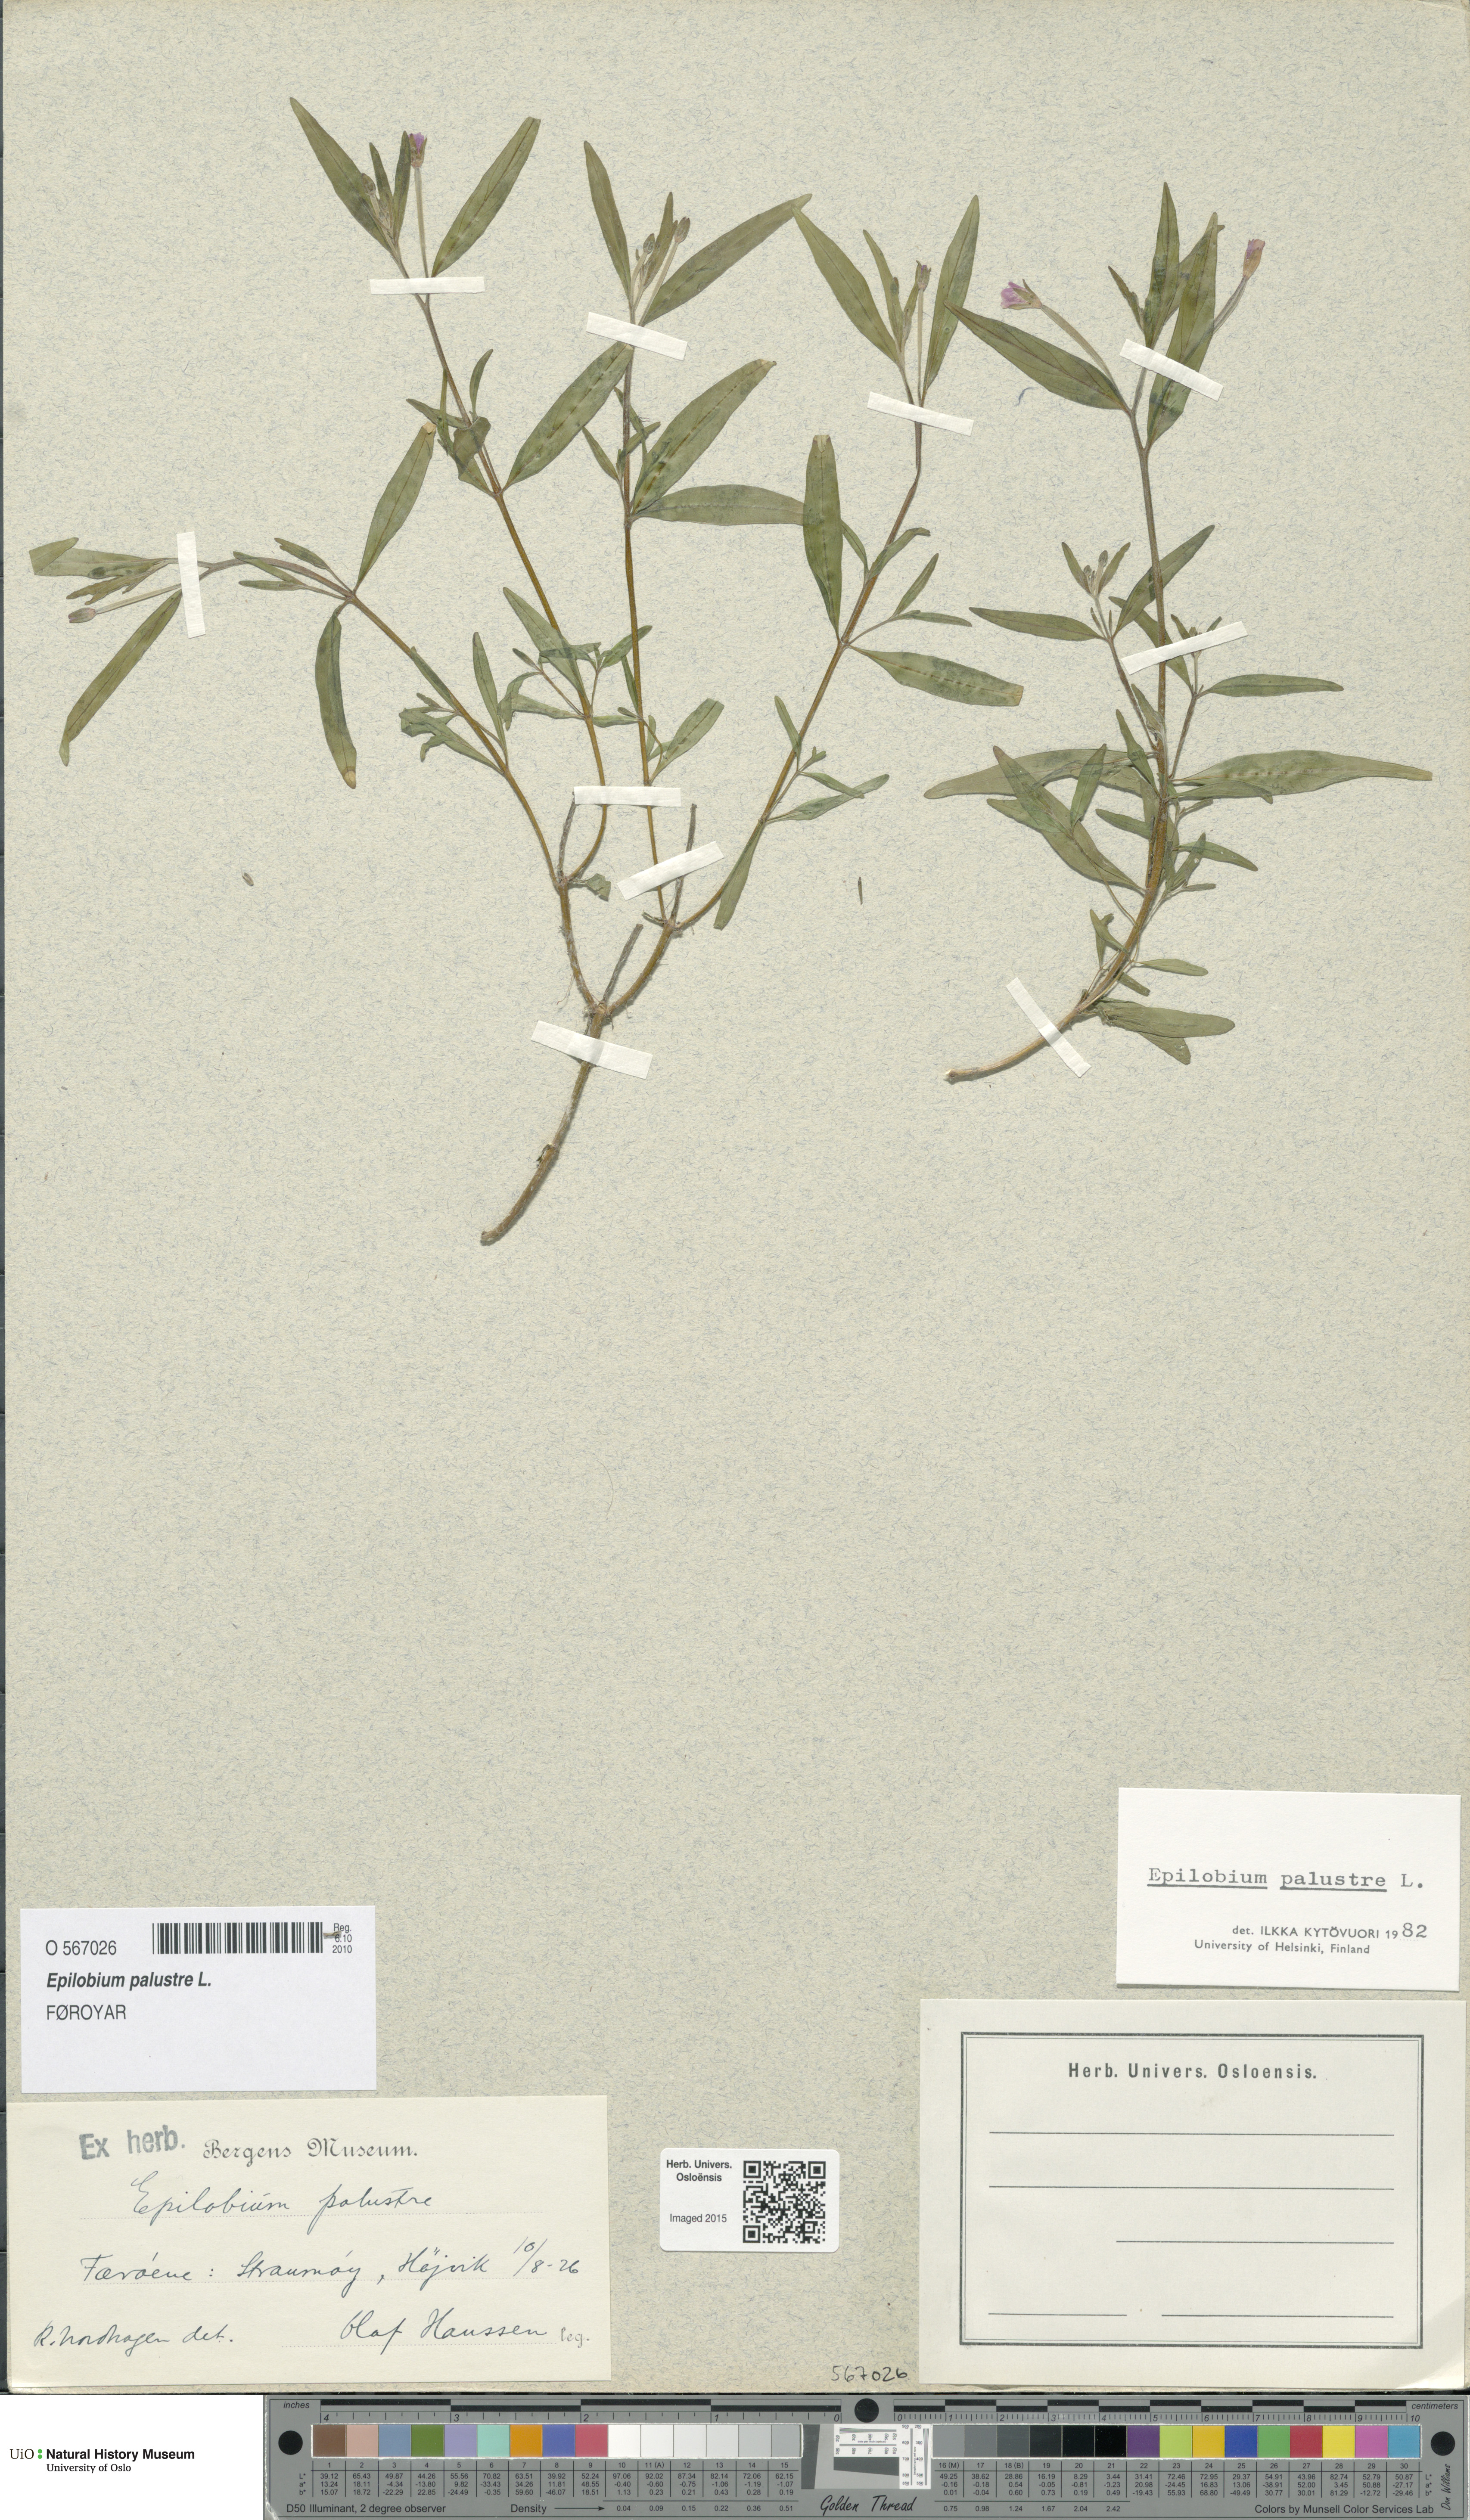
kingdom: Plantae
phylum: Tracheophyta
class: Magnoliopsida
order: Myrtales
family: Onagraceae
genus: Epilobium
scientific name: Epilobium palustre
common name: Marsh willowherb
